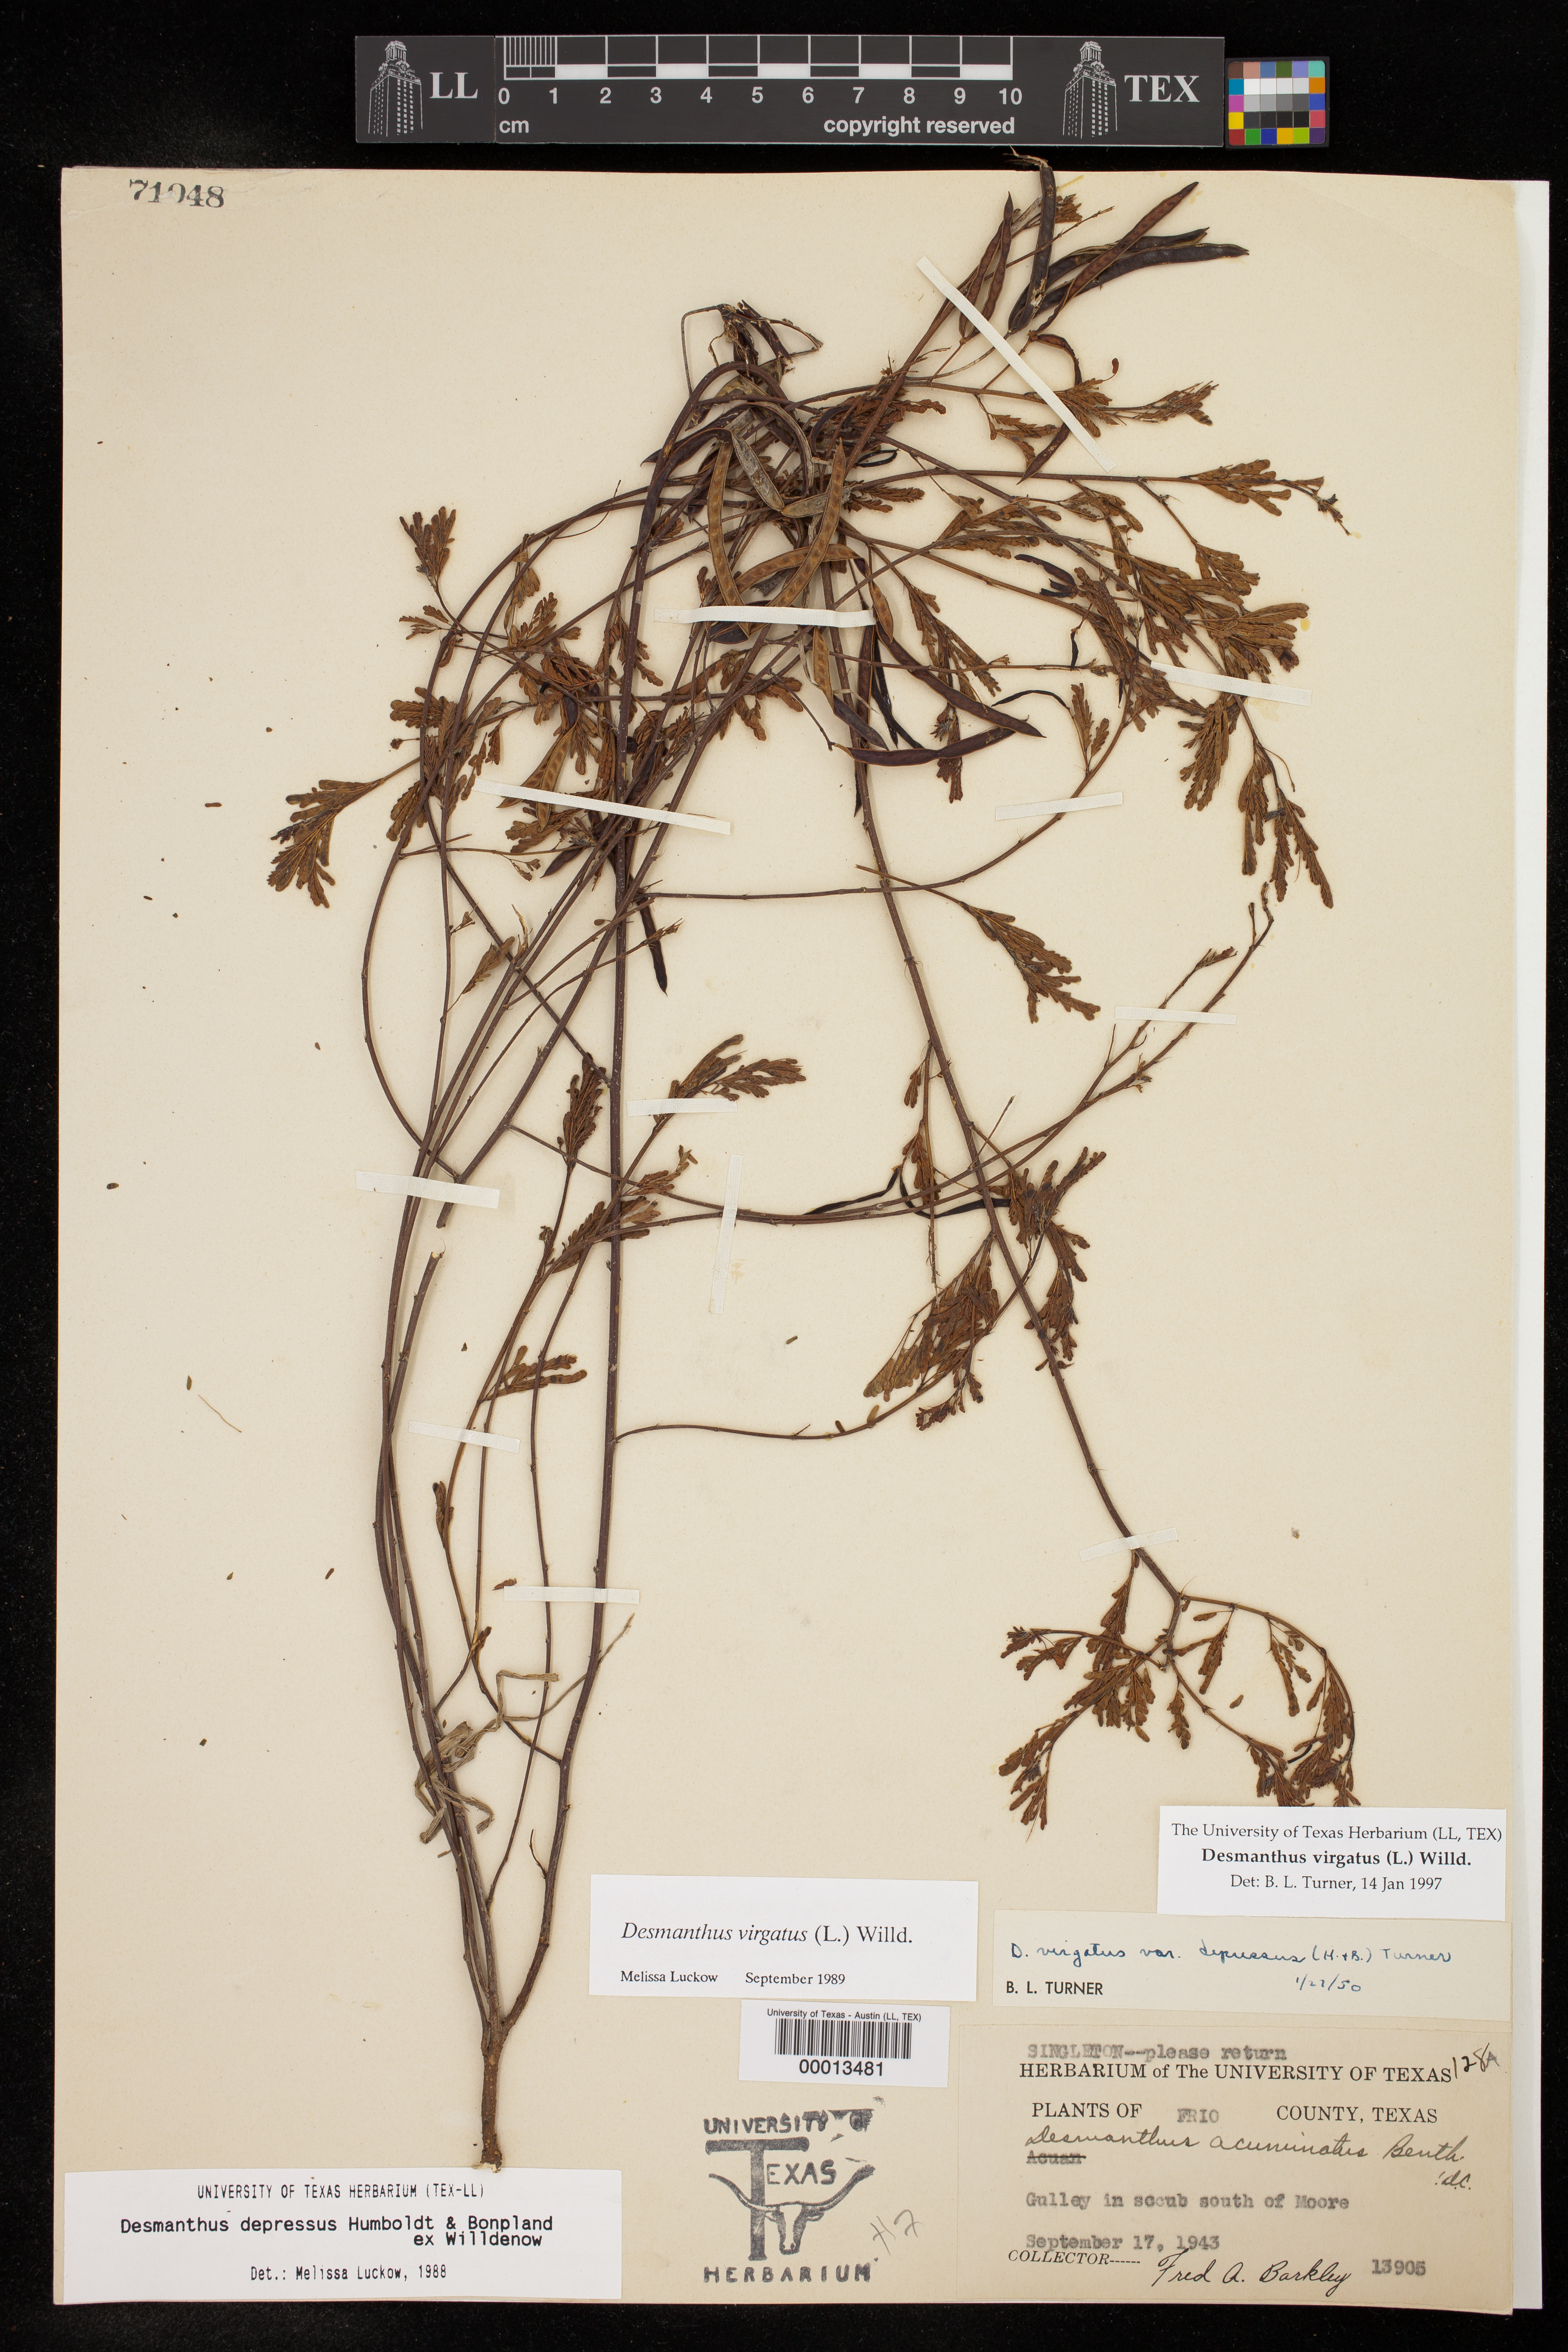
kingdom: Plantae
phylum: Tracheophyta
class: Magnoliopsida
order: Fabales
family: Fabaceae
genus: Desmanthus
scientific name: Desmanthus virgatus
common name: Wild tantan
